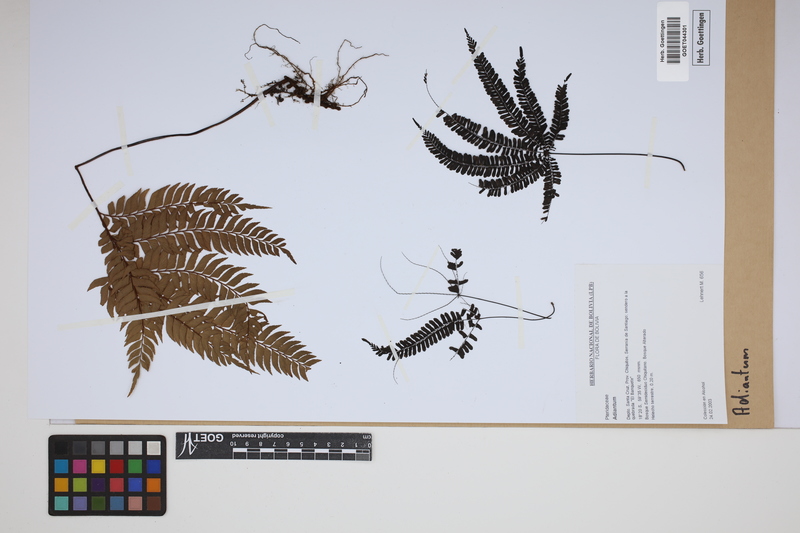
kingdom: Plantae
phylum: Tracheophyta
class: Polypodiopsida
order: Polypodiales
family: Pteridaceae
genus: Adiantum
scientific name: Adiantum
